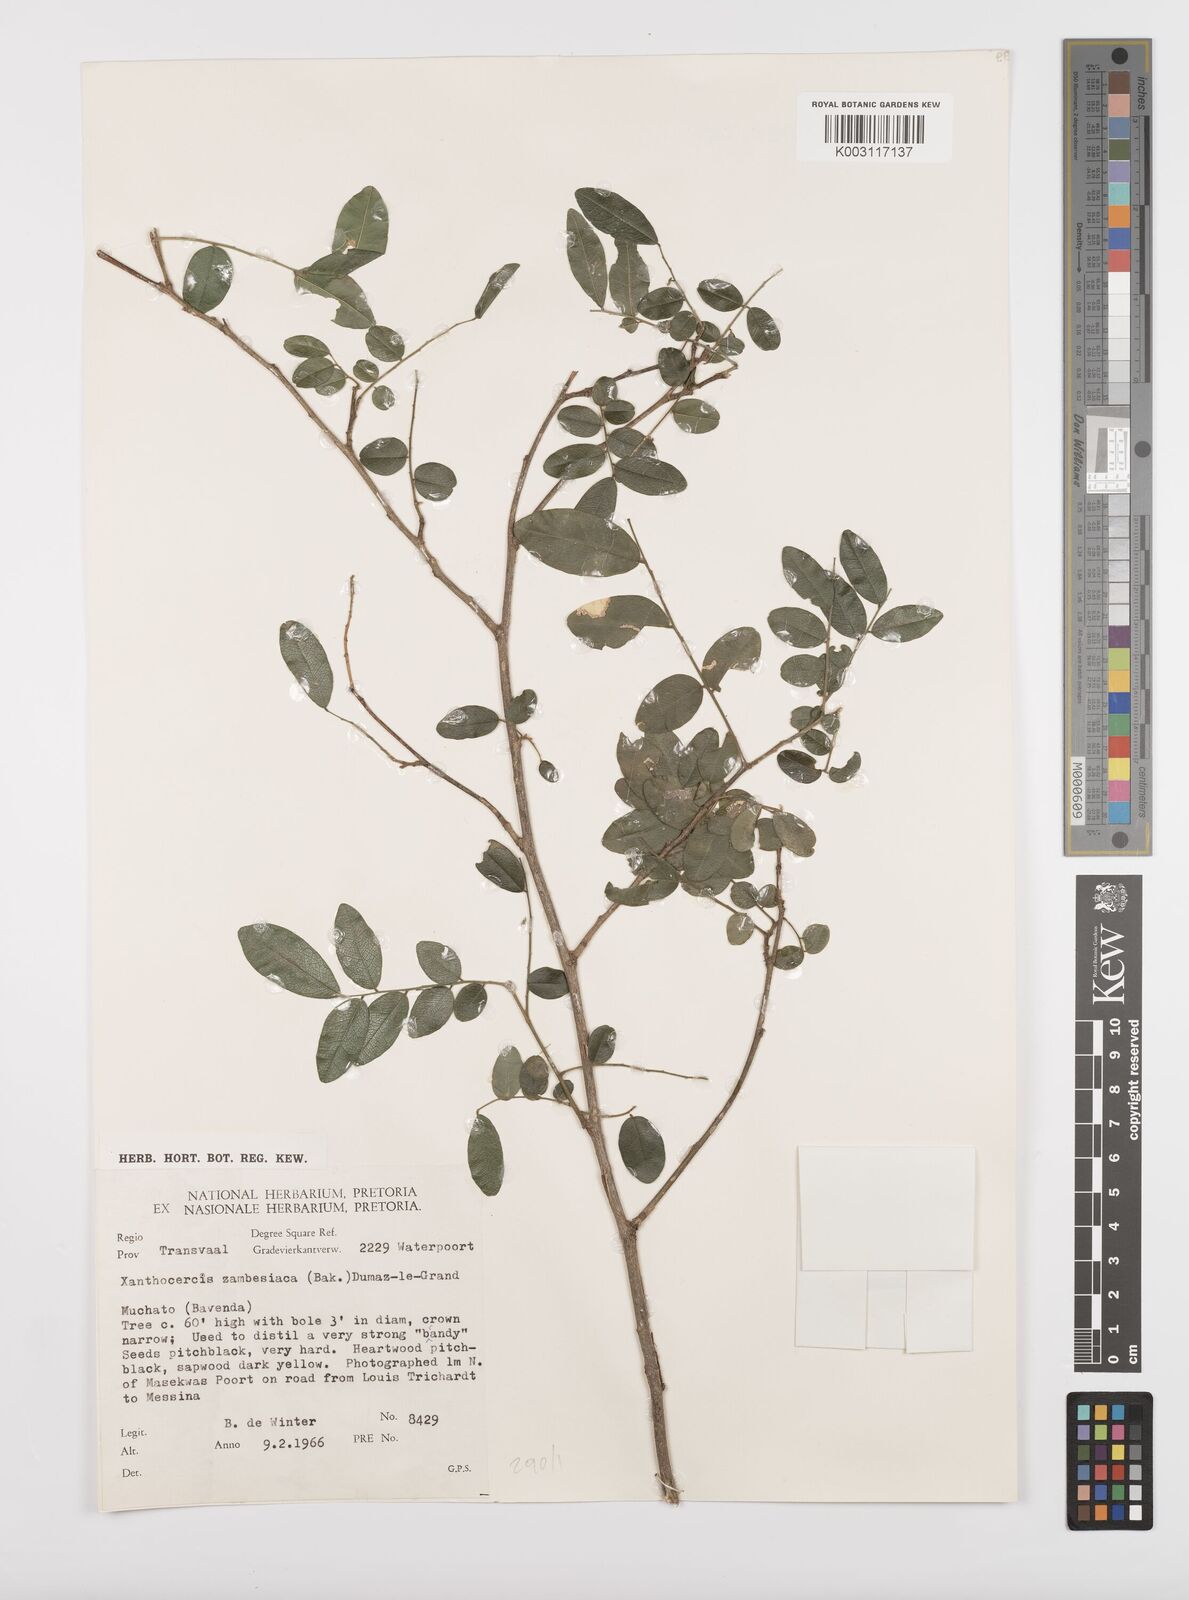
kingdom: Plantae
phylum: Tracheophyta
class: Magnoliopsida
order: Fabales
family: Fabaceae
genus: Xanthocercis
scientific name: Xanthocercis zambesiaca
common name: Nyala-tree
